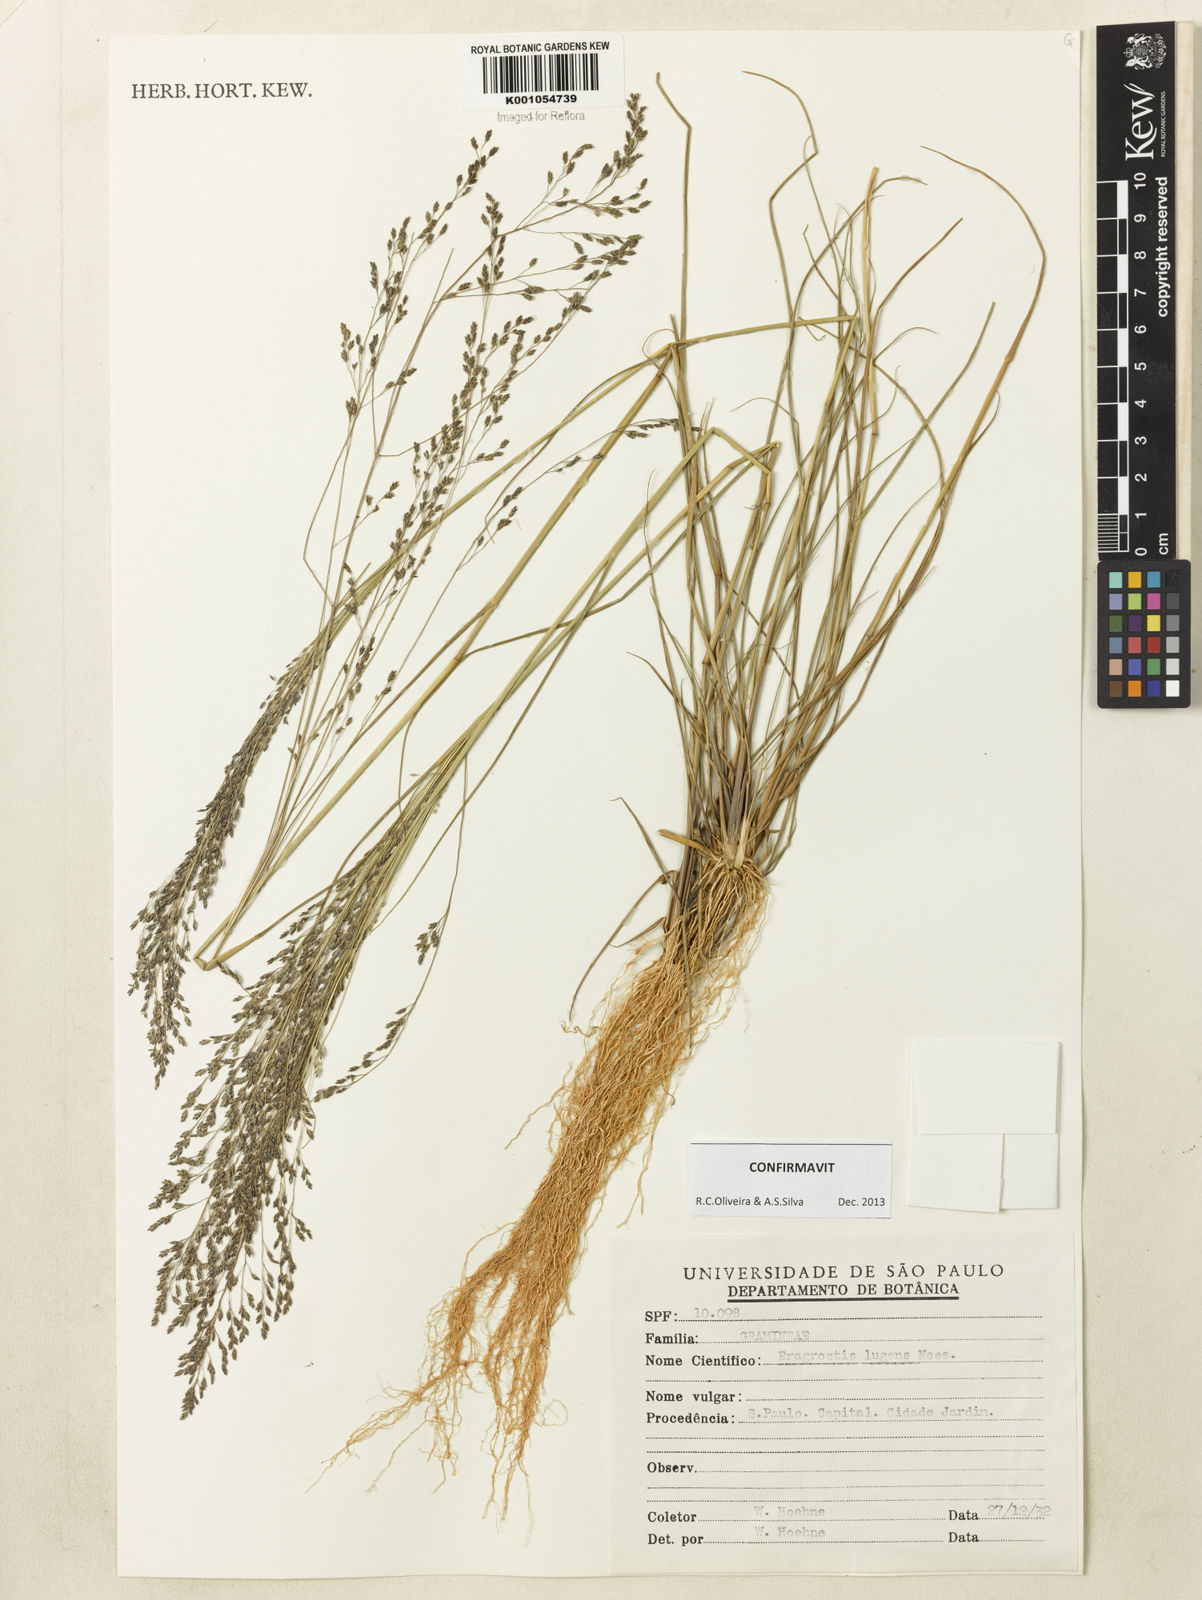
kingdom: Plantae
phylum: Tracheophyta
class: Liliopsida
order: Poales
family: Poaceae
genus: Eragrostis
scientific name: Eragrostis lugens
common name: Mourning love grass
